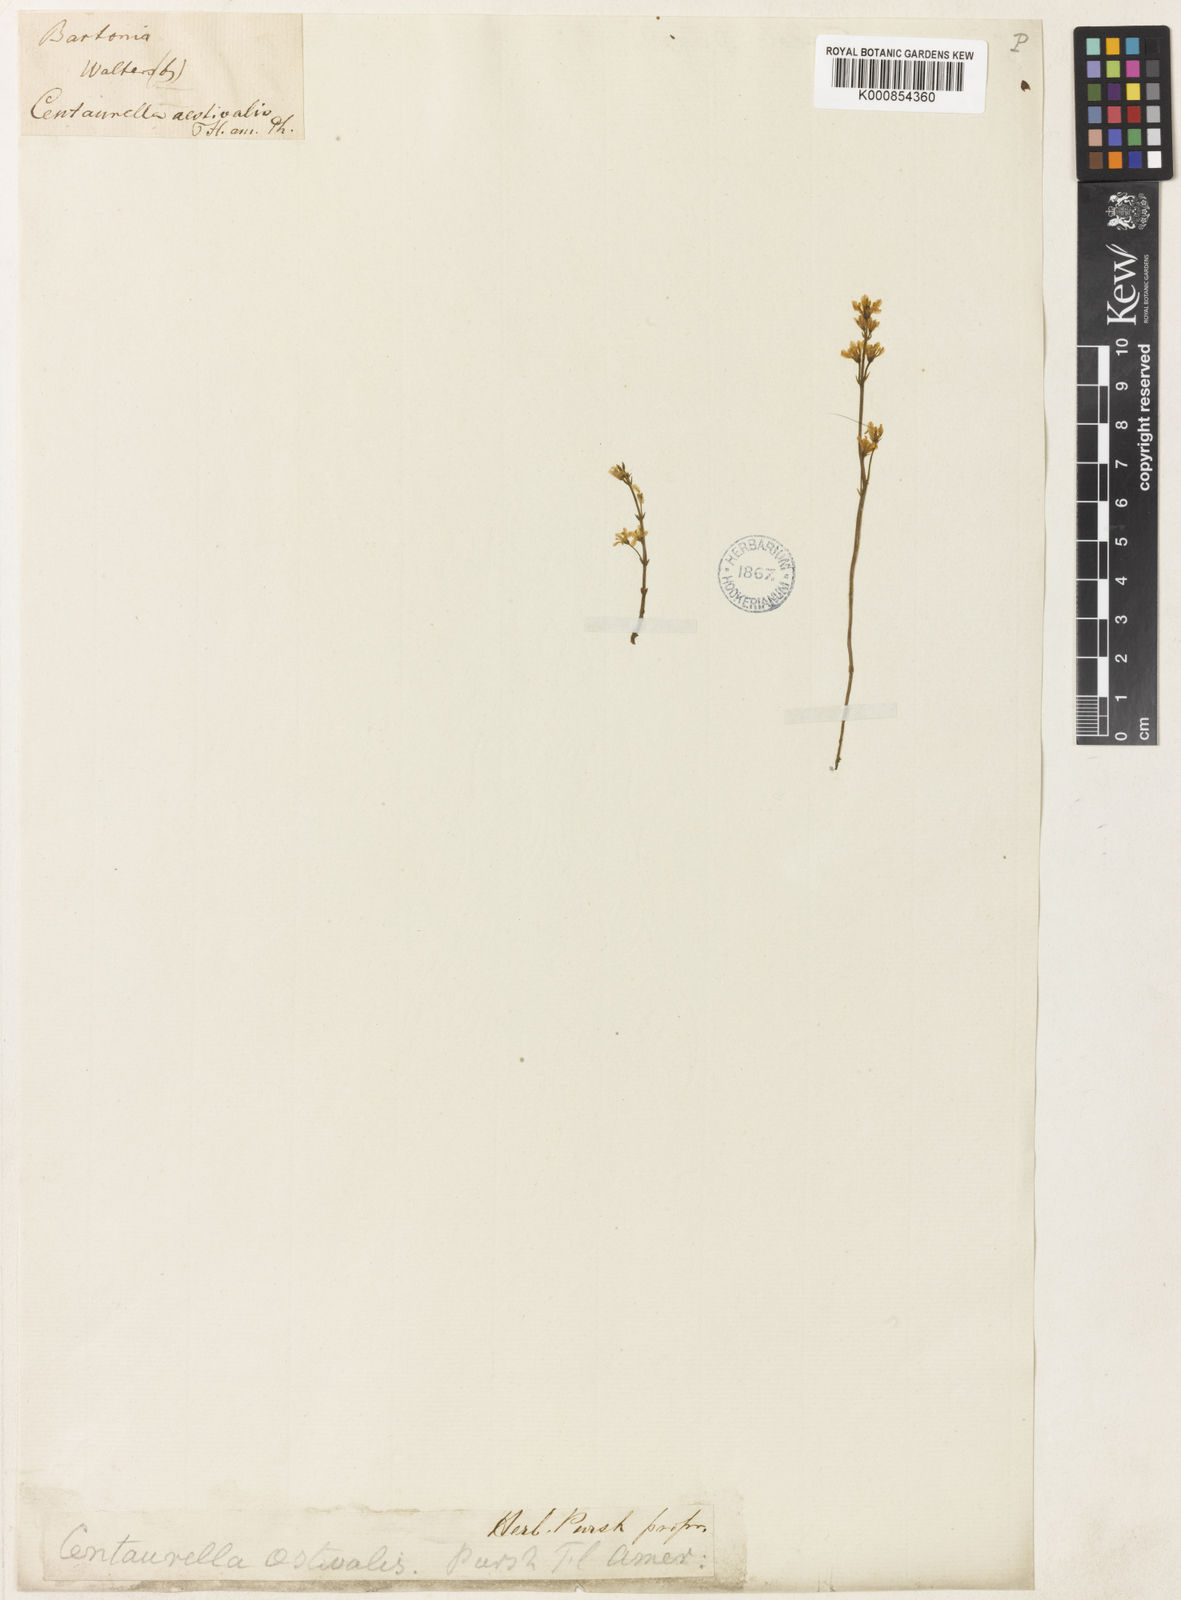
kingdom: Plantae
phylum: Tracheophyta
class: Magnoliopsida
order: Gentianales
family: Gentianaceae
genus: Bartonia
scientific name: Bartonia verna
